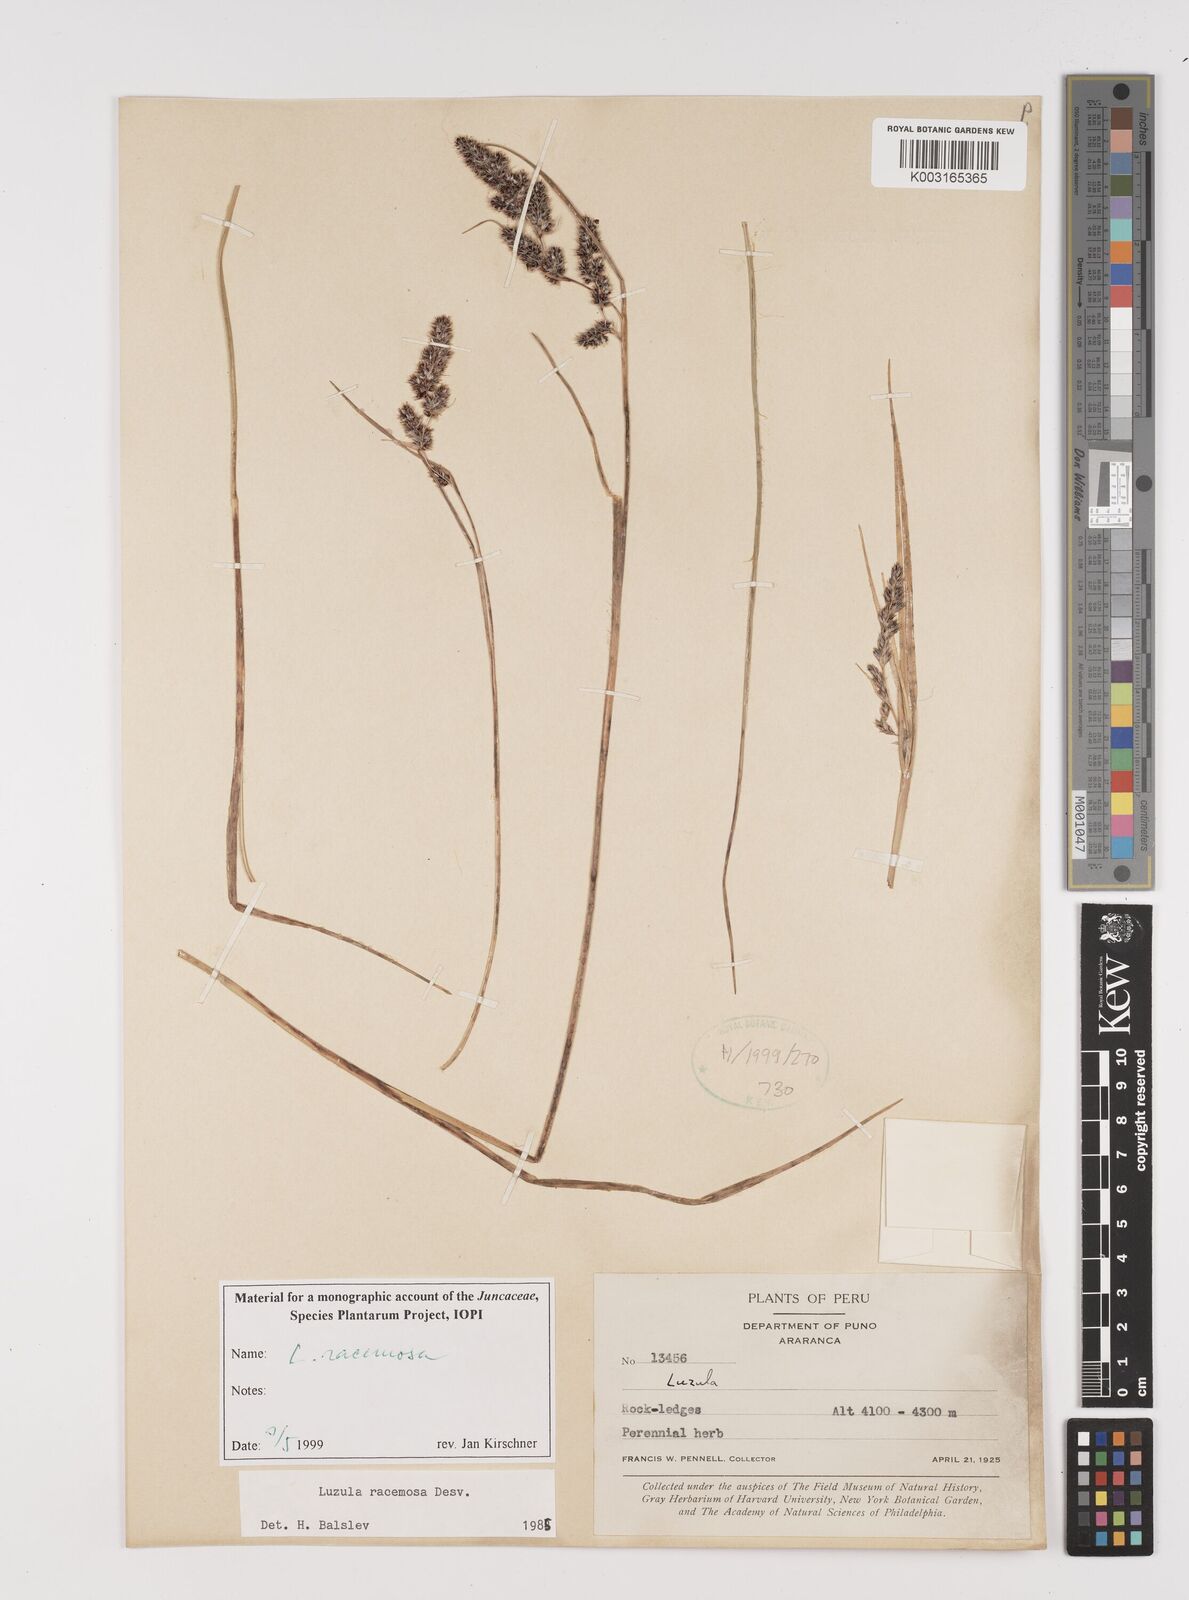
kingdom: Plantae
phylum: Tracheophyta
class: Liliopsida
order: Poales
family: Juncaceae
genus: Luzula
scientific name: Luzula racemosa
